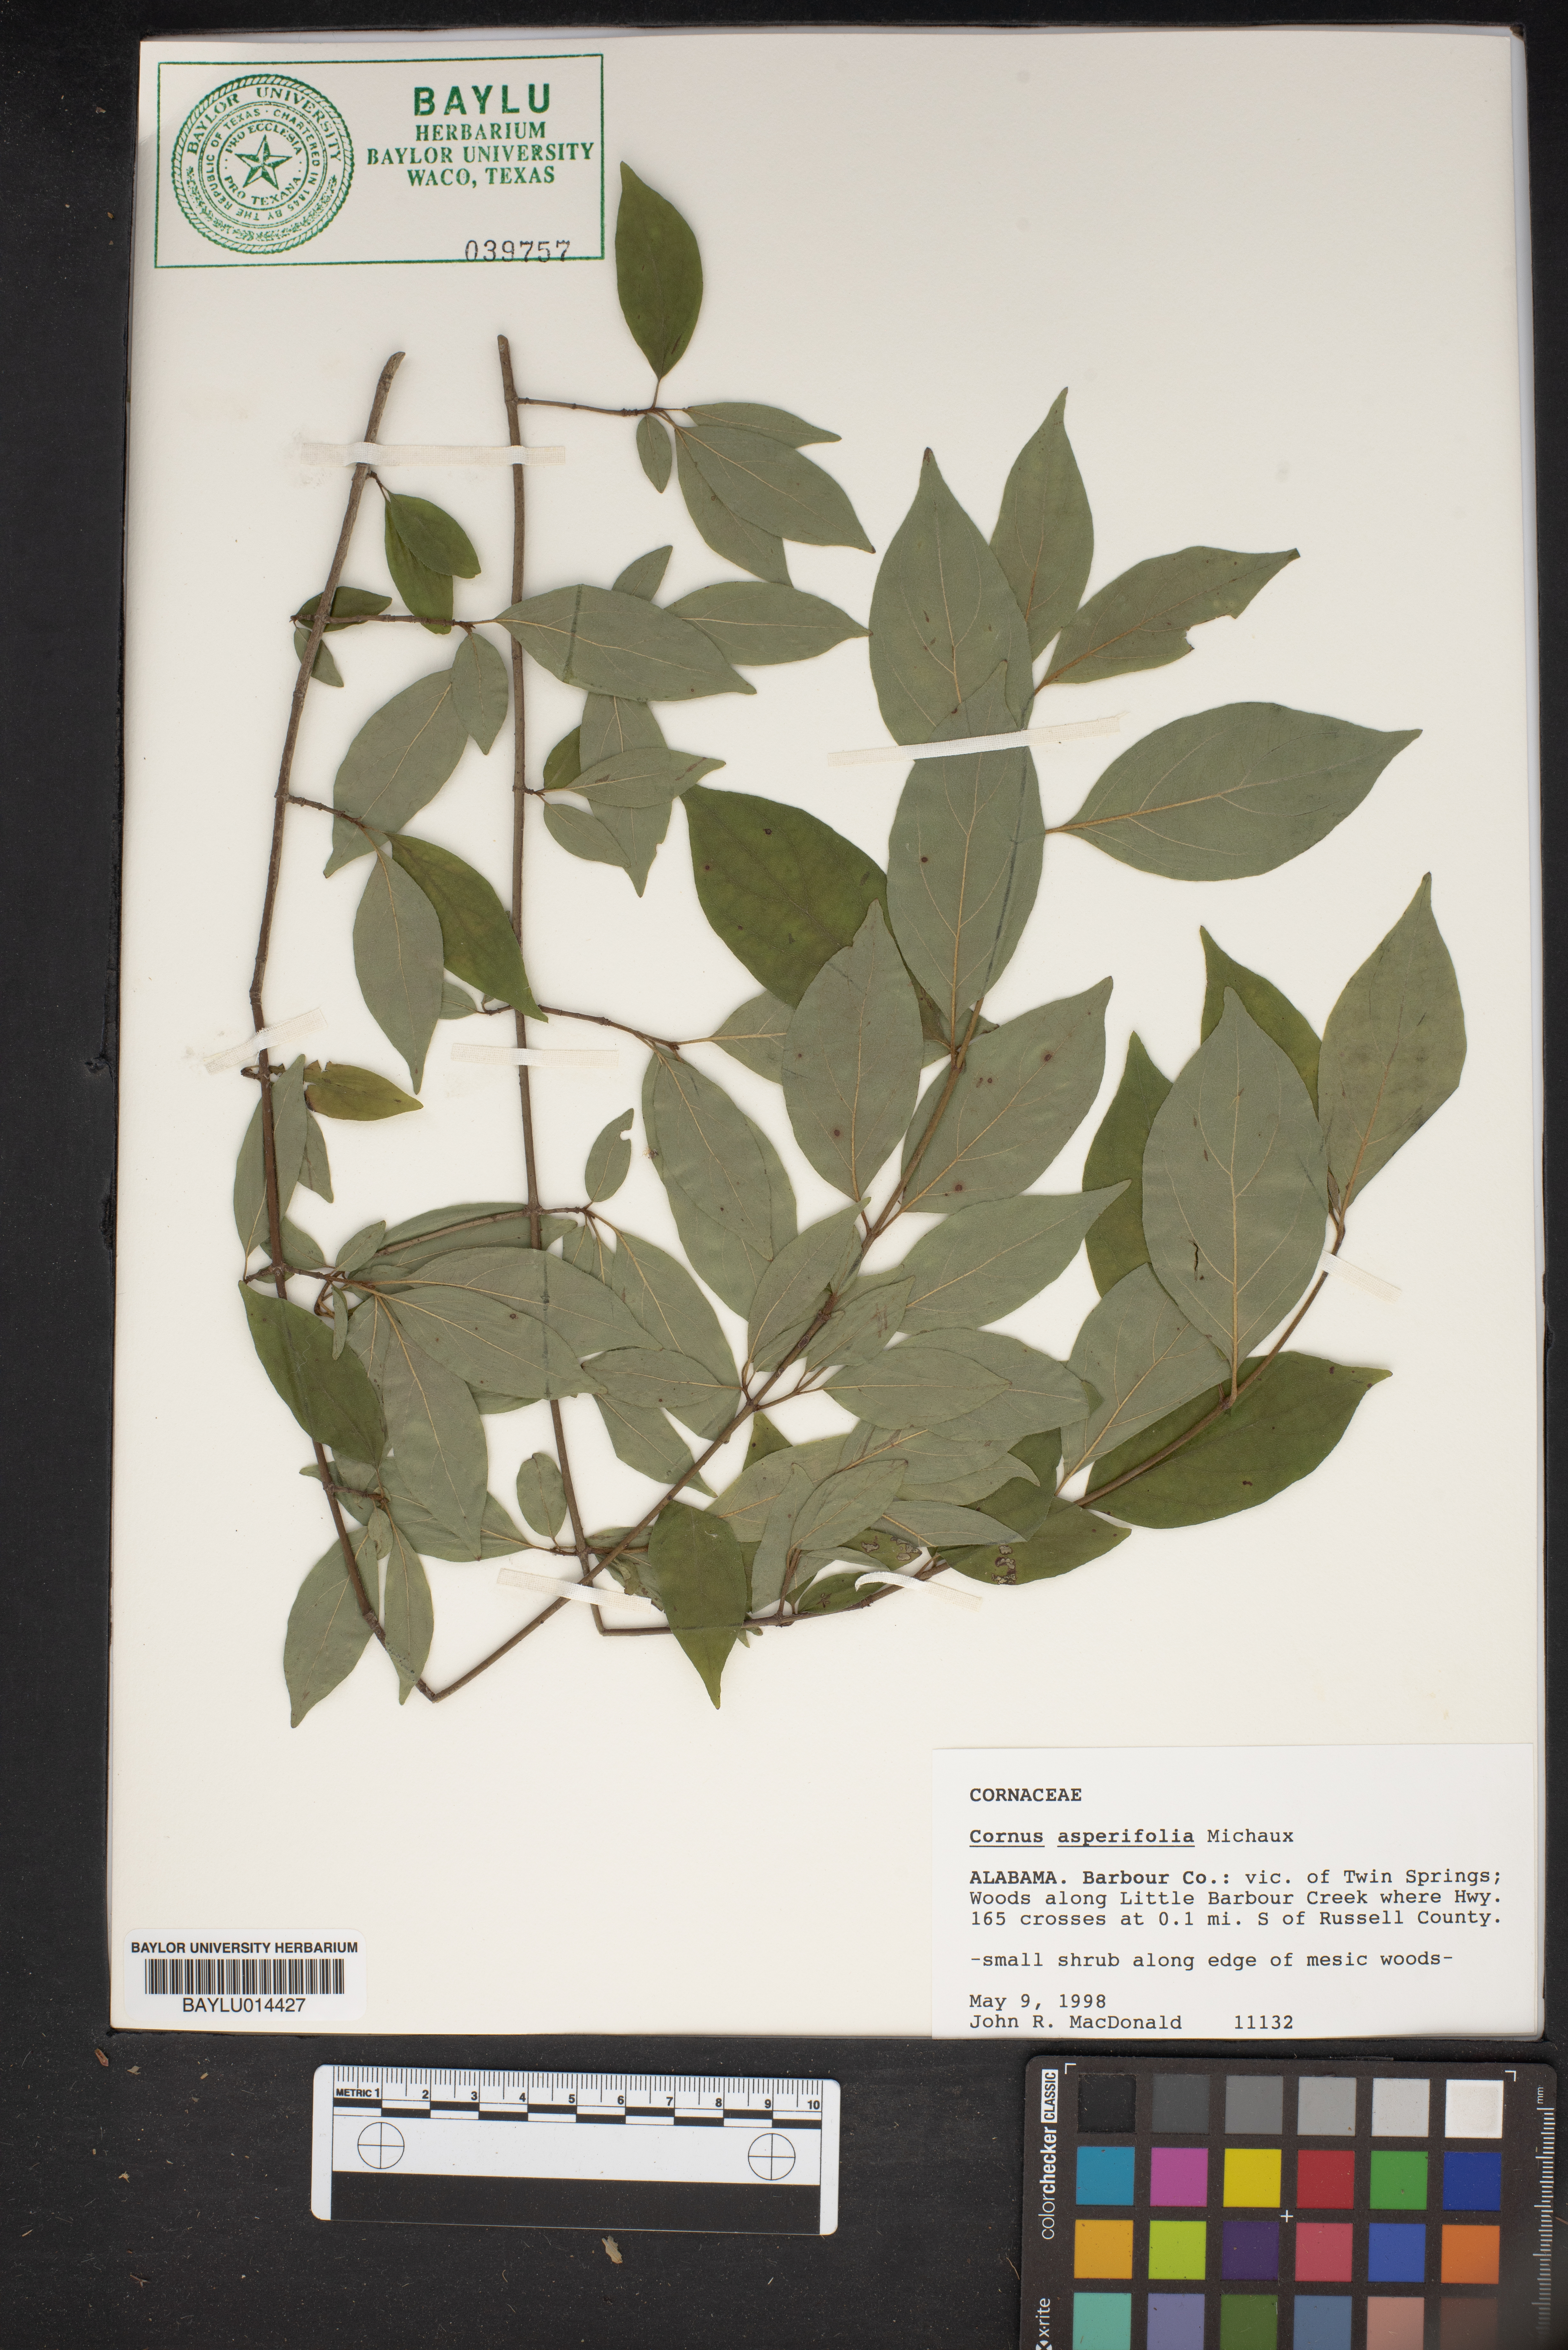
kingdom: Plantae
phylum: Tracheophyta
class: Magnoliopsida
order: Cornales
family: Cornaceae
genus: Cornus
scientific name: Cornus asperifolia
